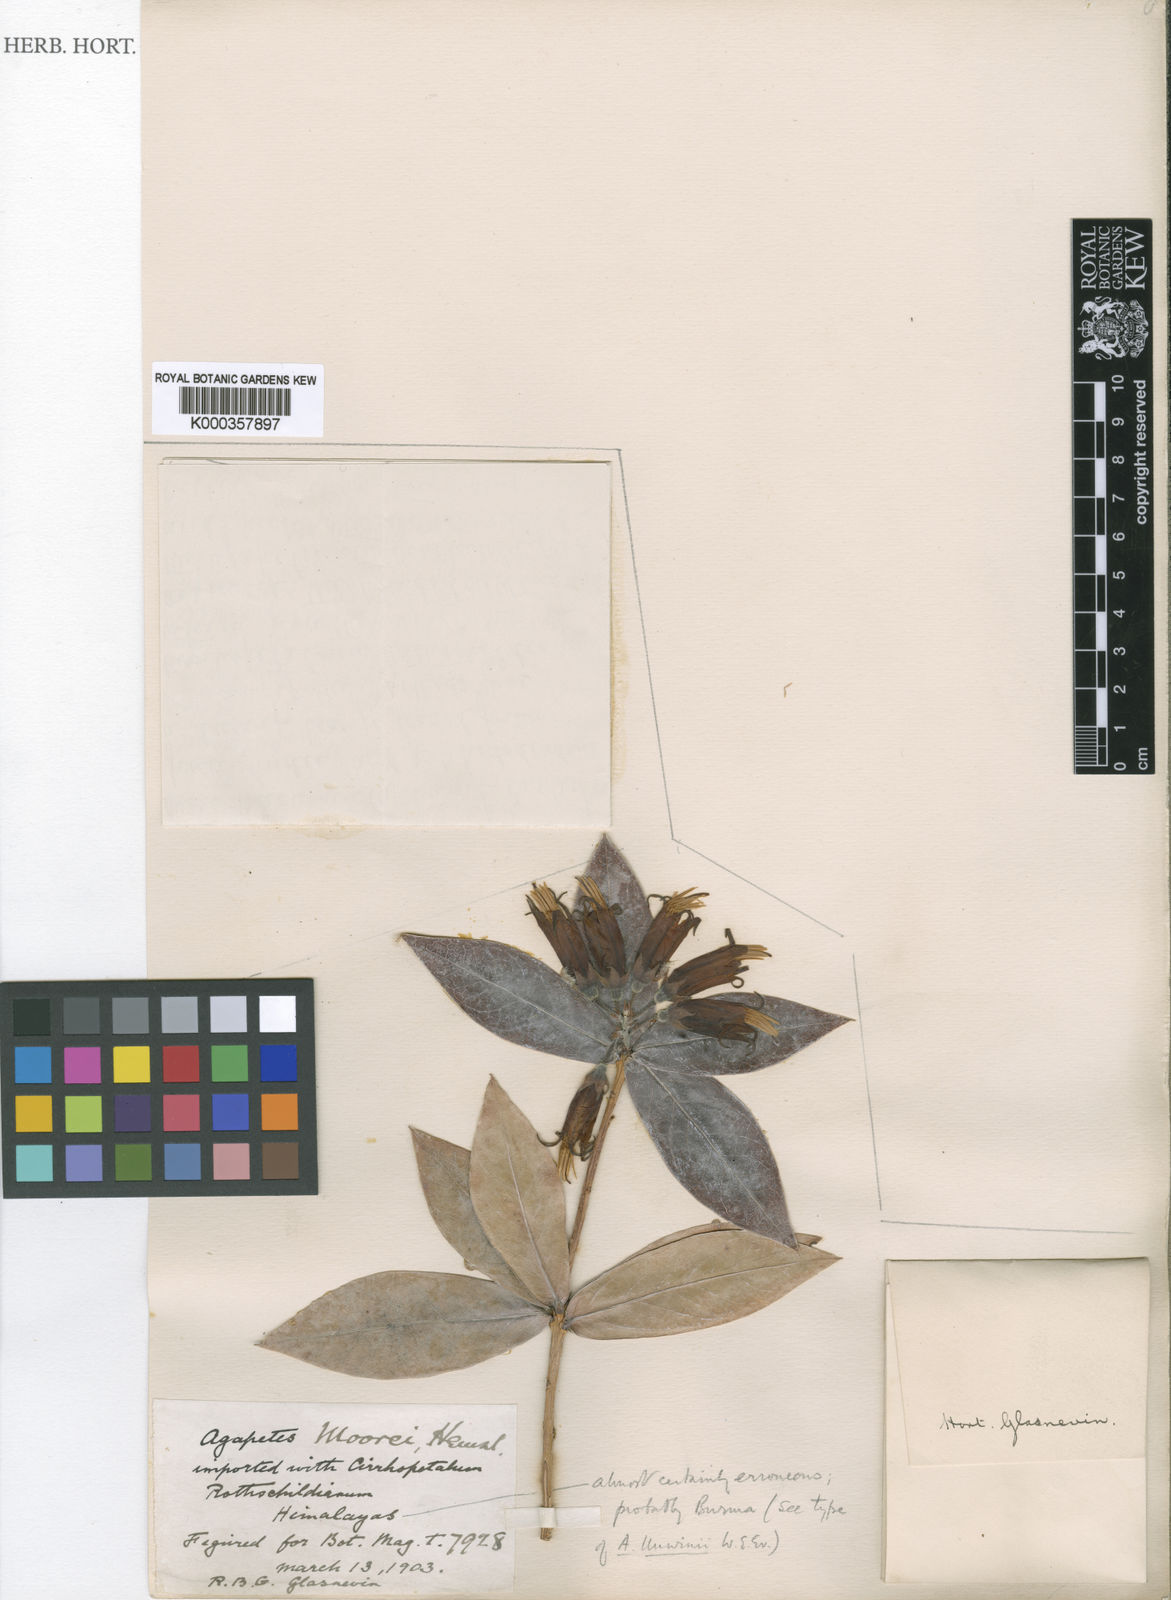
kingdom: Plantae
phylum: Tracheophyta
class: Magnoliopsida
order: Ericales
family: Ericaceae
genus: Agapetes
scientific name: Agapetes moorei
